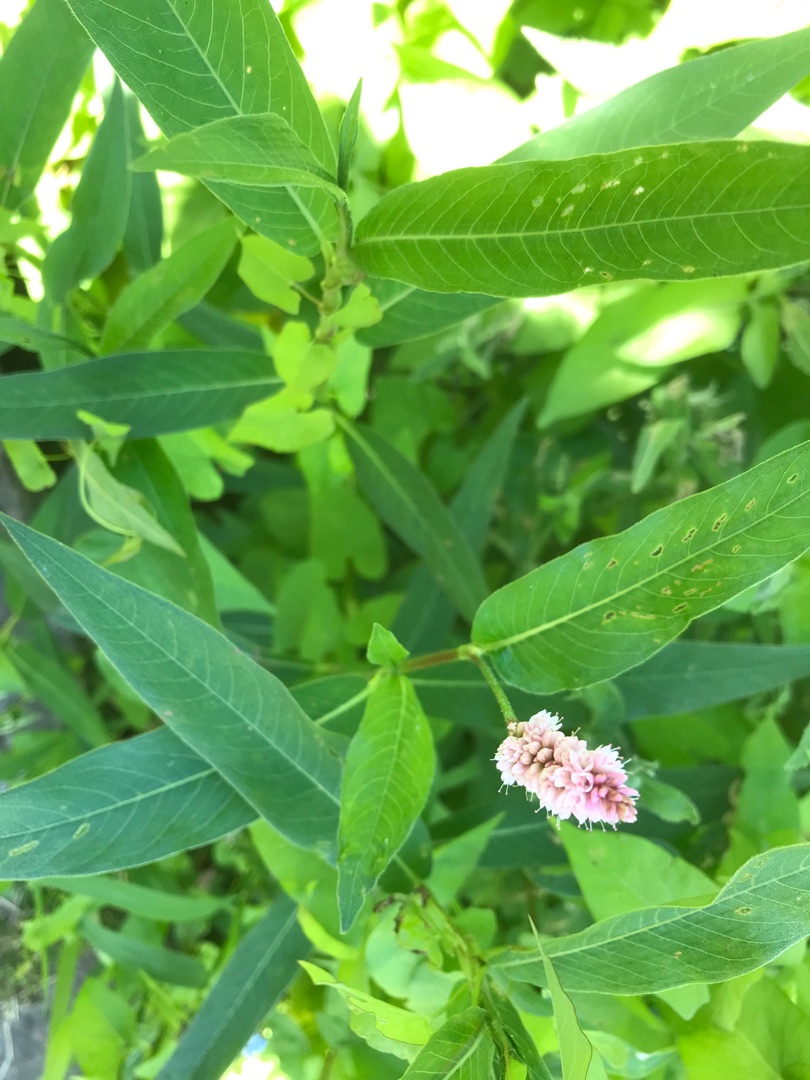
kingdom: Plantae
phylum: Tracheophyta
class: Magnoliopsida
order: Caryophyllales
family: Polygonaceae
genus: Persicaria
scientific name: Persicaria amphibia
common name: Vand-pileurt
